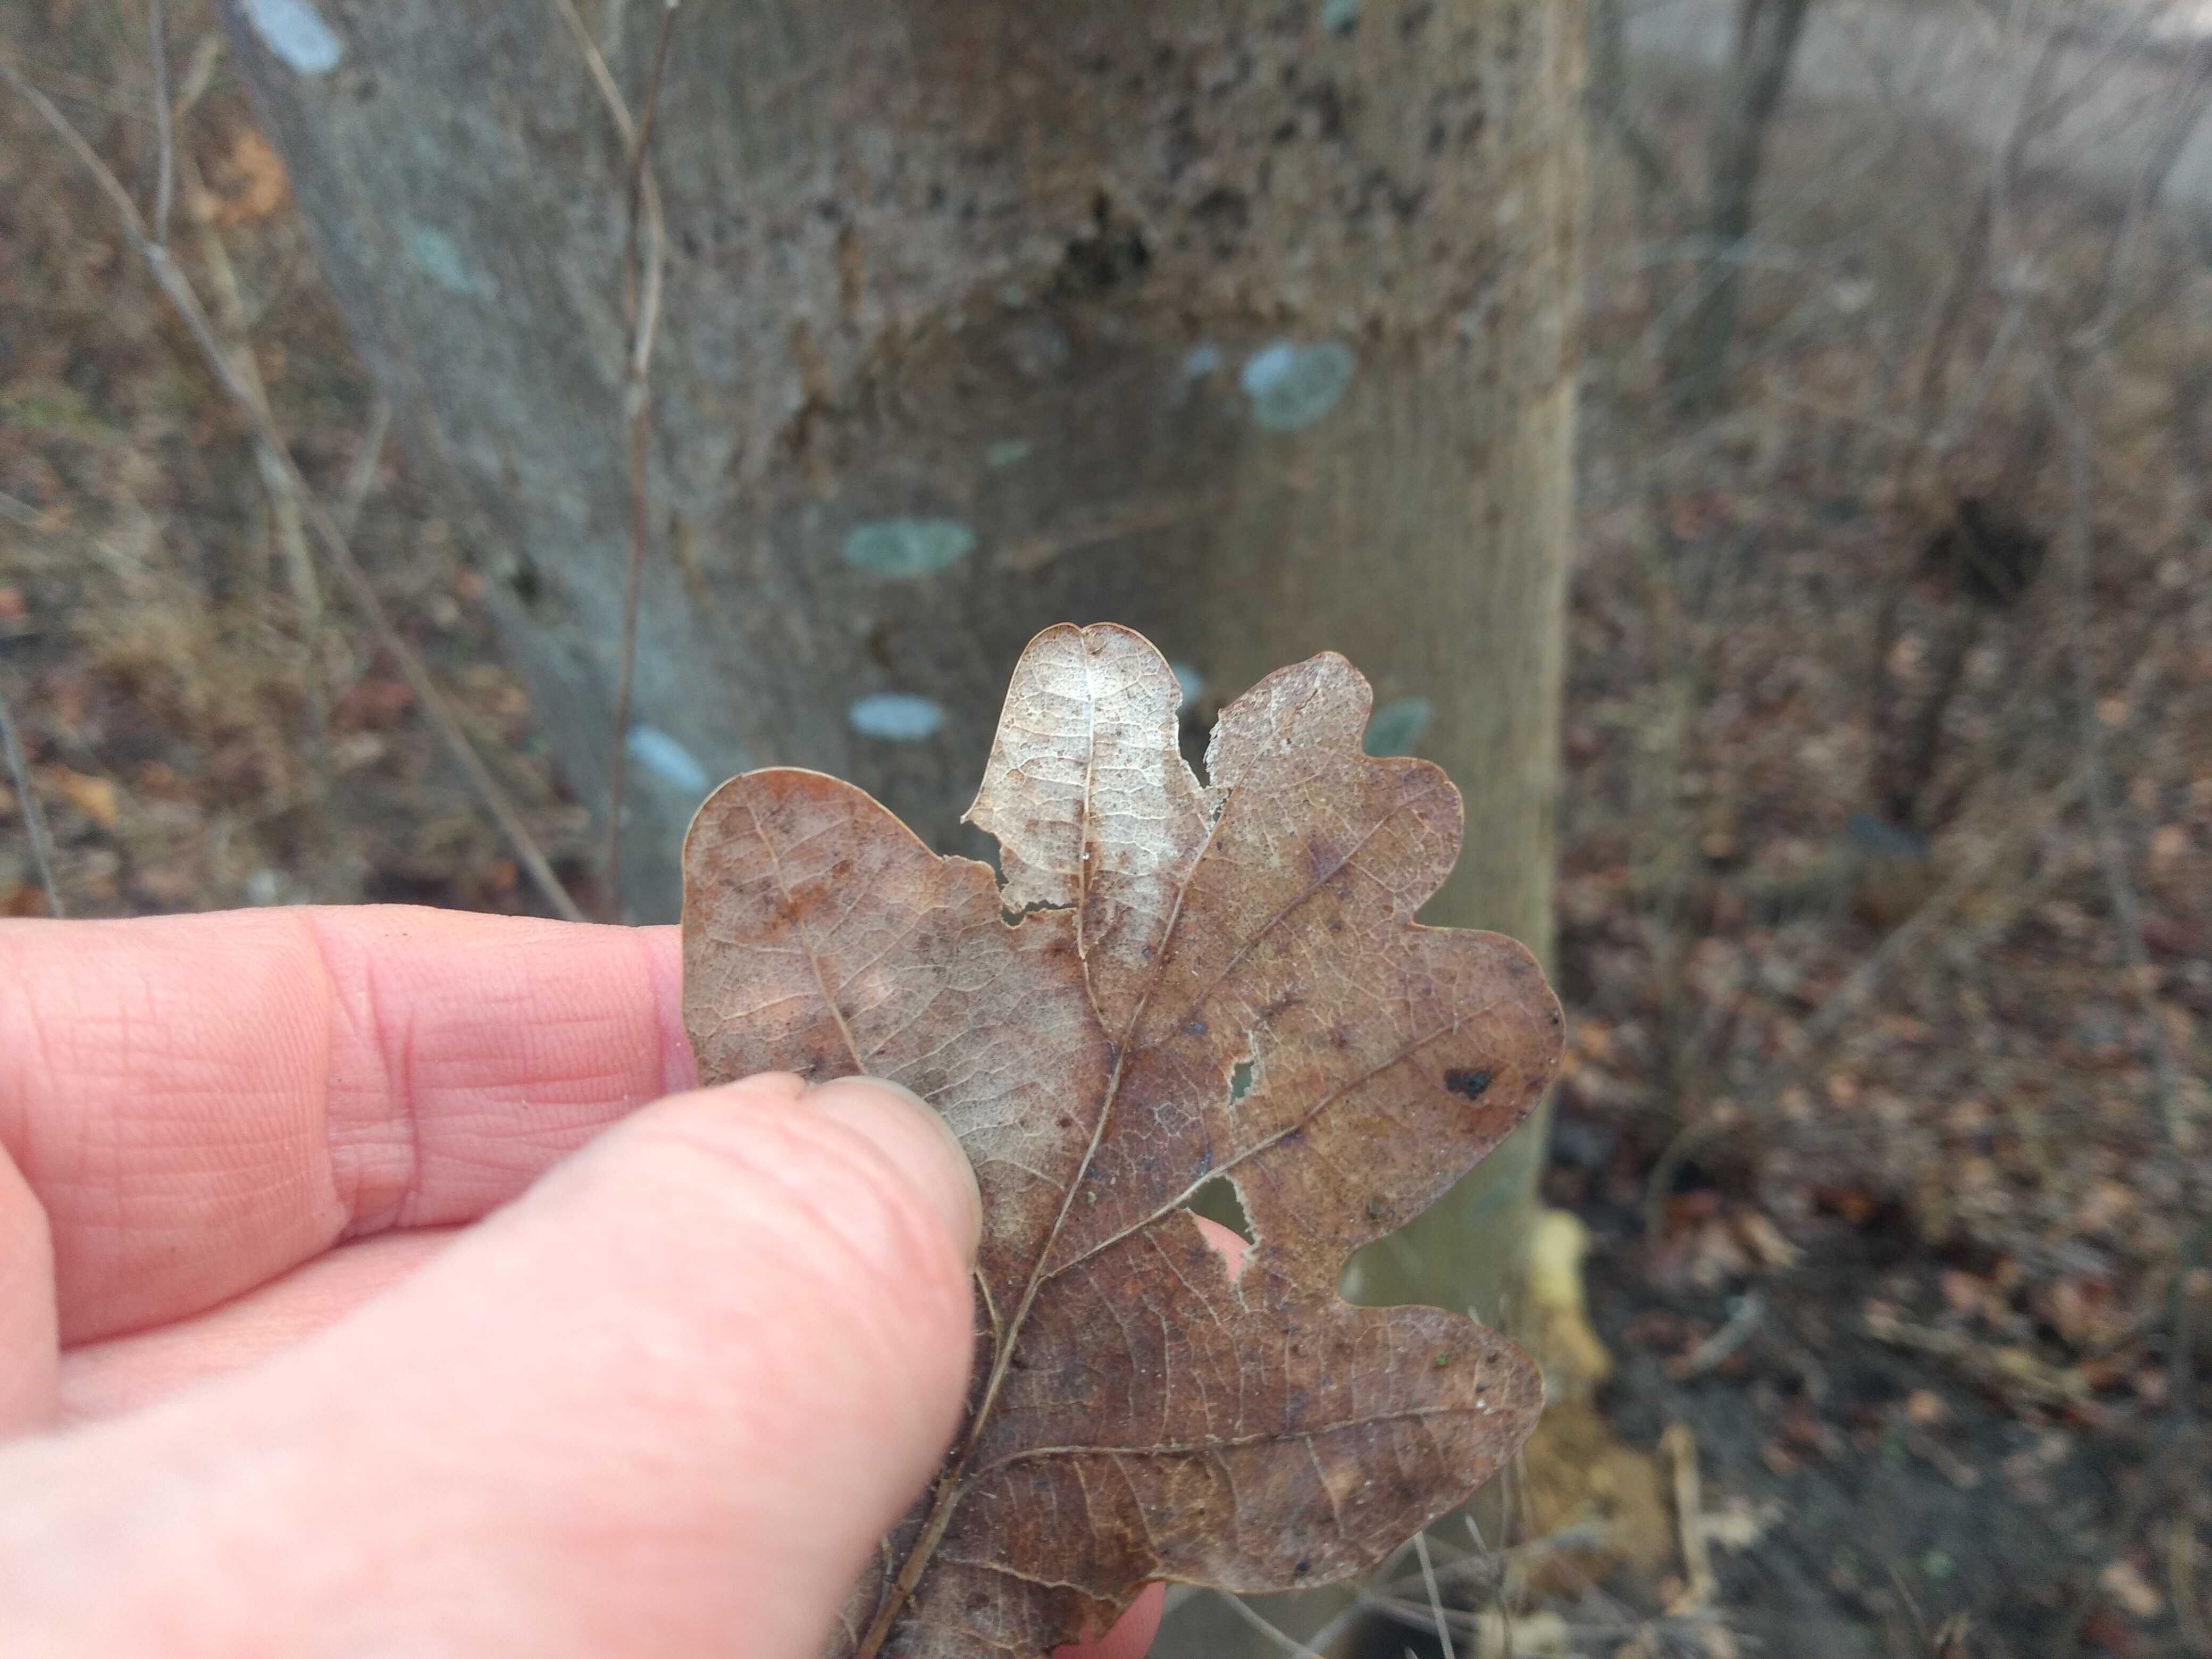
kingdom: Plantae
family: Lecanoromycetidae
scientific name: Lecanoromycetidae
